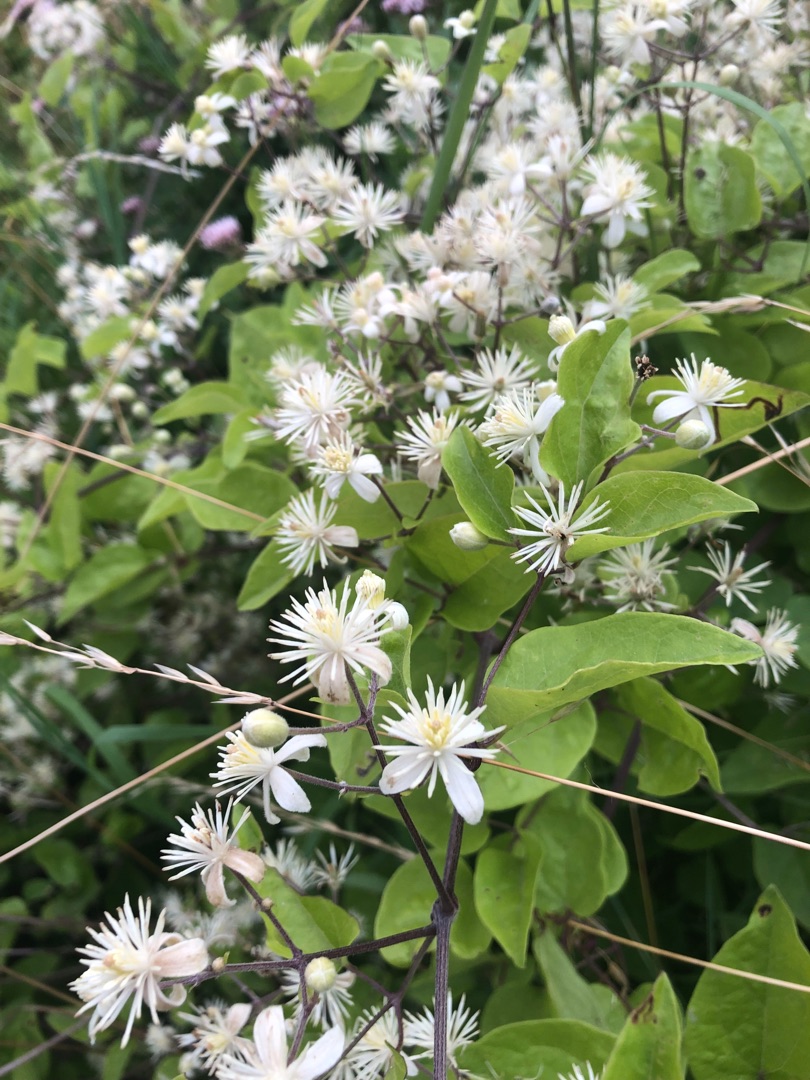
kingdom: Plantae
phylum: Tracheophyta
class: Magnoliopsida
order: Ranunculales
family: Ranunculaceae
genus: Clematis
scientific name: Clematis vitalba
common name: Skovranke
